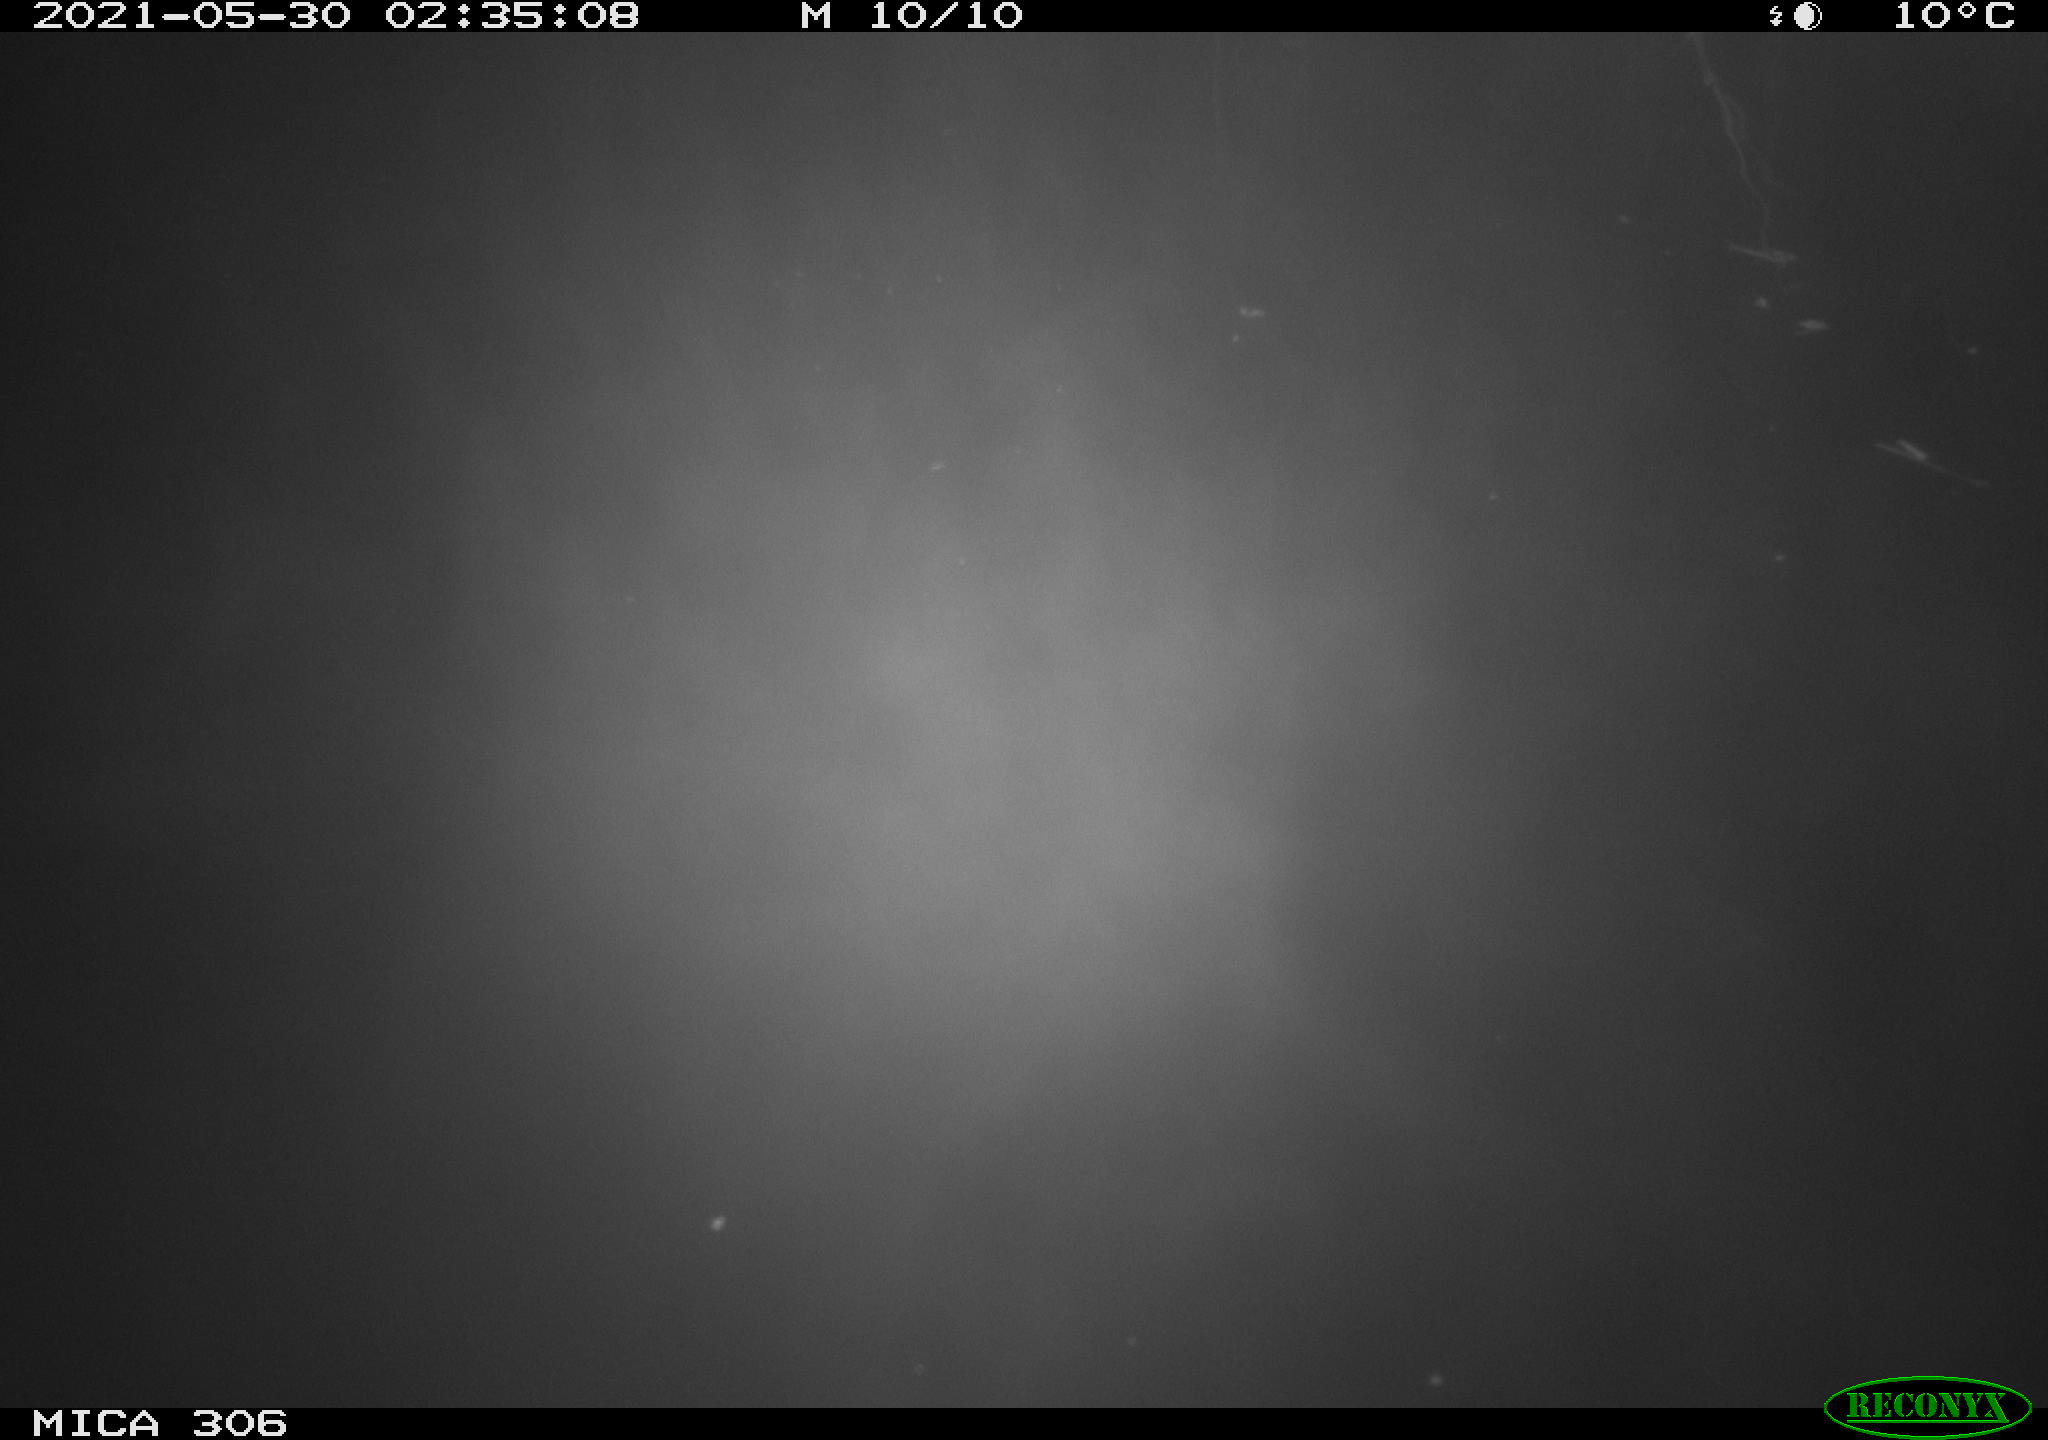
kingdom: Animalia
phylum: Chordata
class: Mammalia
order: Rodentia
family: Cricetidae
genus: Ondatra
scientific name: Ondatra zibethicus
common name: Muskrat
